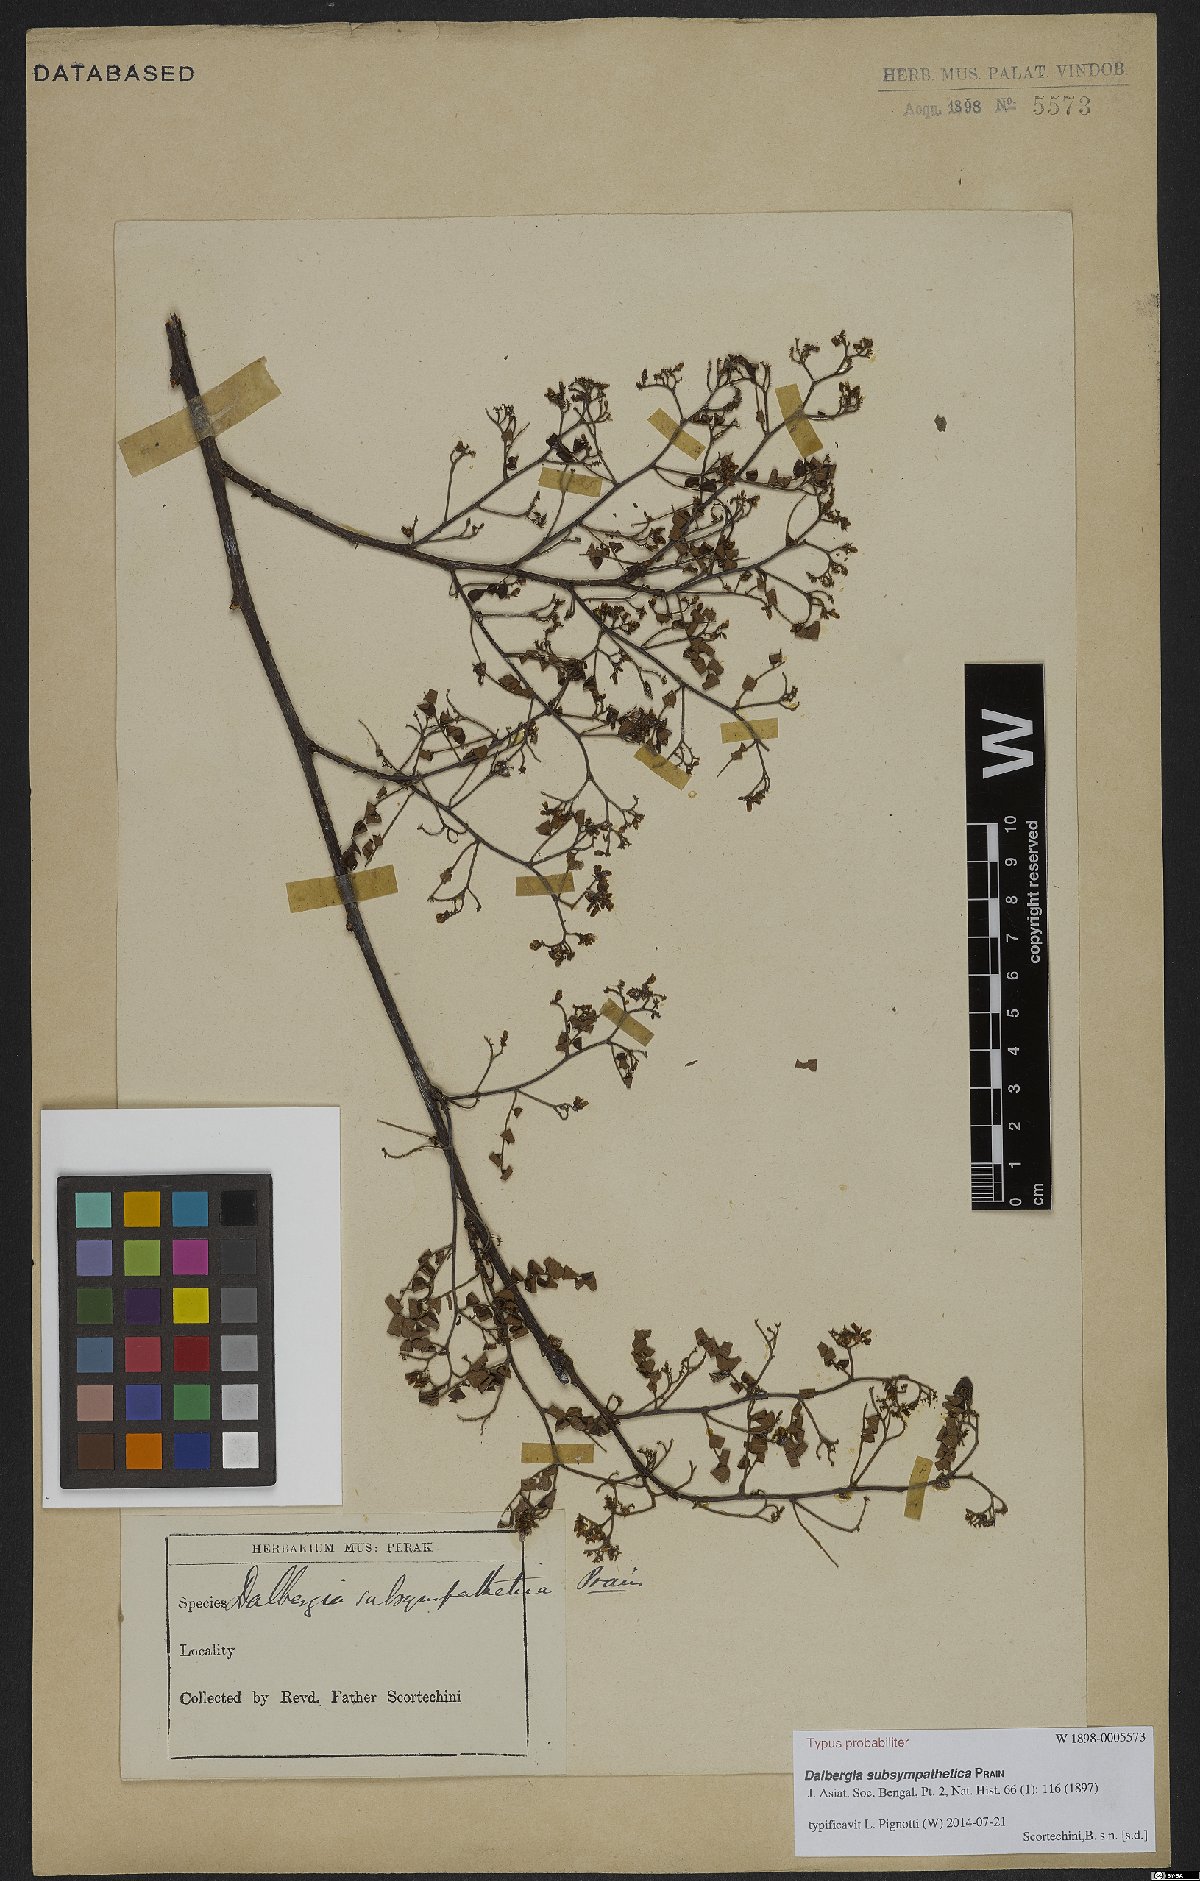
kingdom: Plantae
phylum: Tracheophyta
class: Magnoliopsida
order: Fabales
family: Fabaceae
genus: Dalbergia
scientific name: Dalbergia junghuhnii
